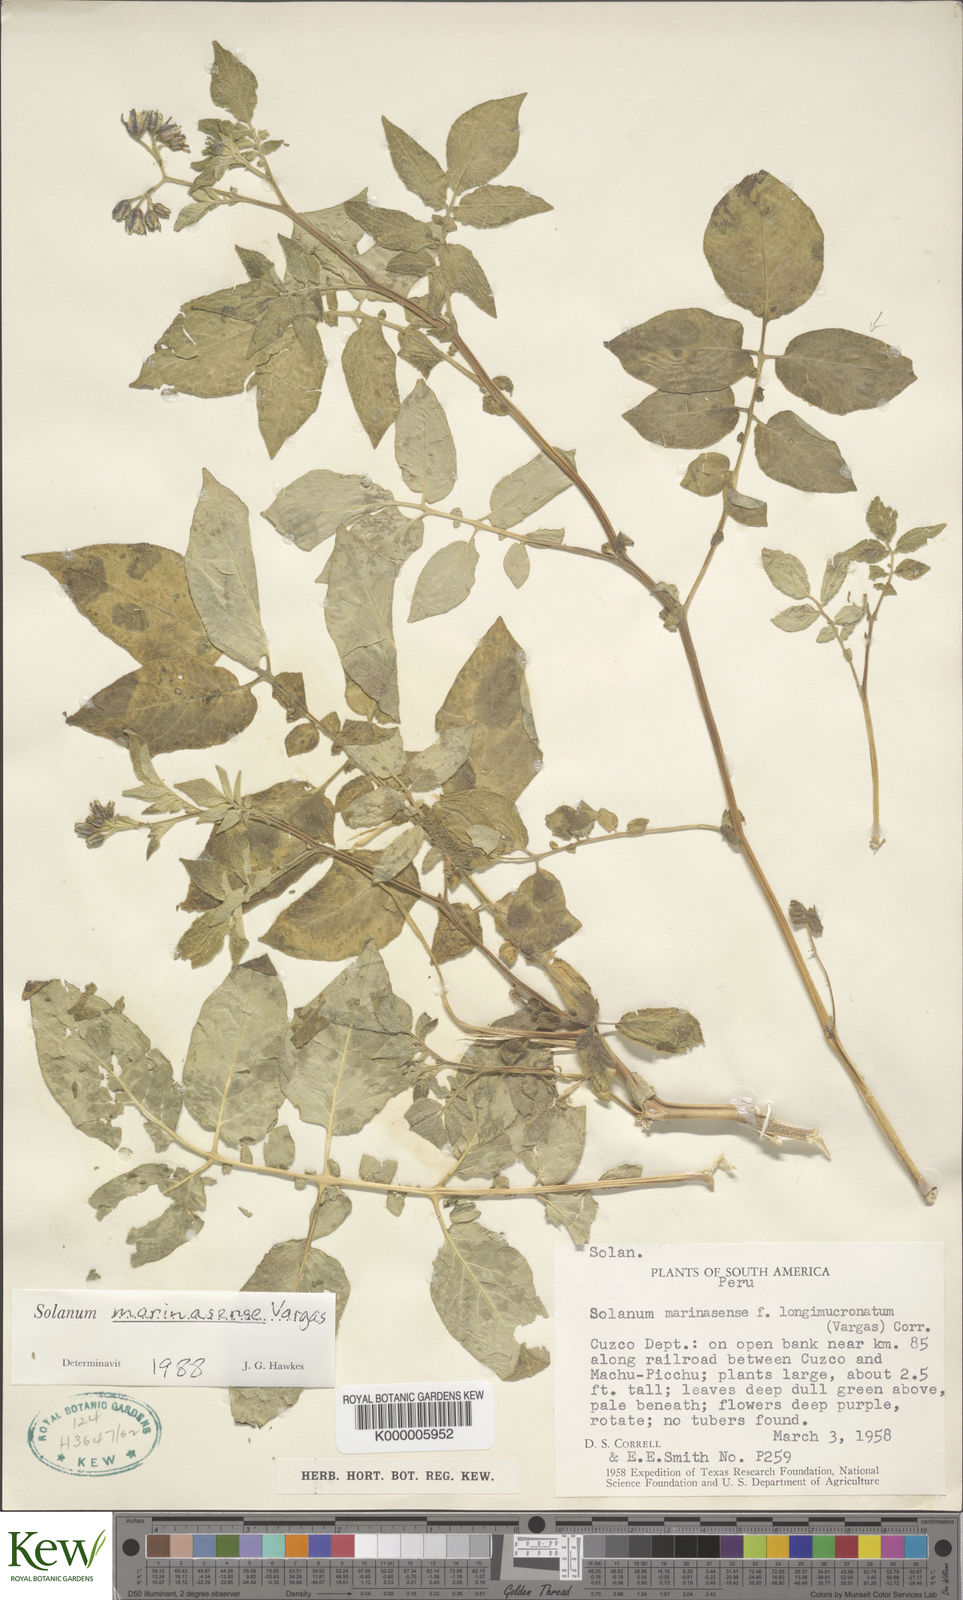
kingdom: Plantae
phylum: Tracheophyta
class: Magnoliopsida
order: Solanales
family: Solanaceae
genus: Solanum
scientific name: Solanum candolleanum
